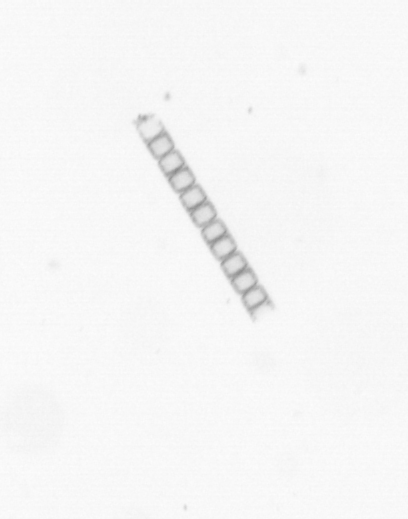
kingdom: Chromista
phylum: Ochrophyta
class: Bacillariophyceae
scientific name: Bacillariophyceae
